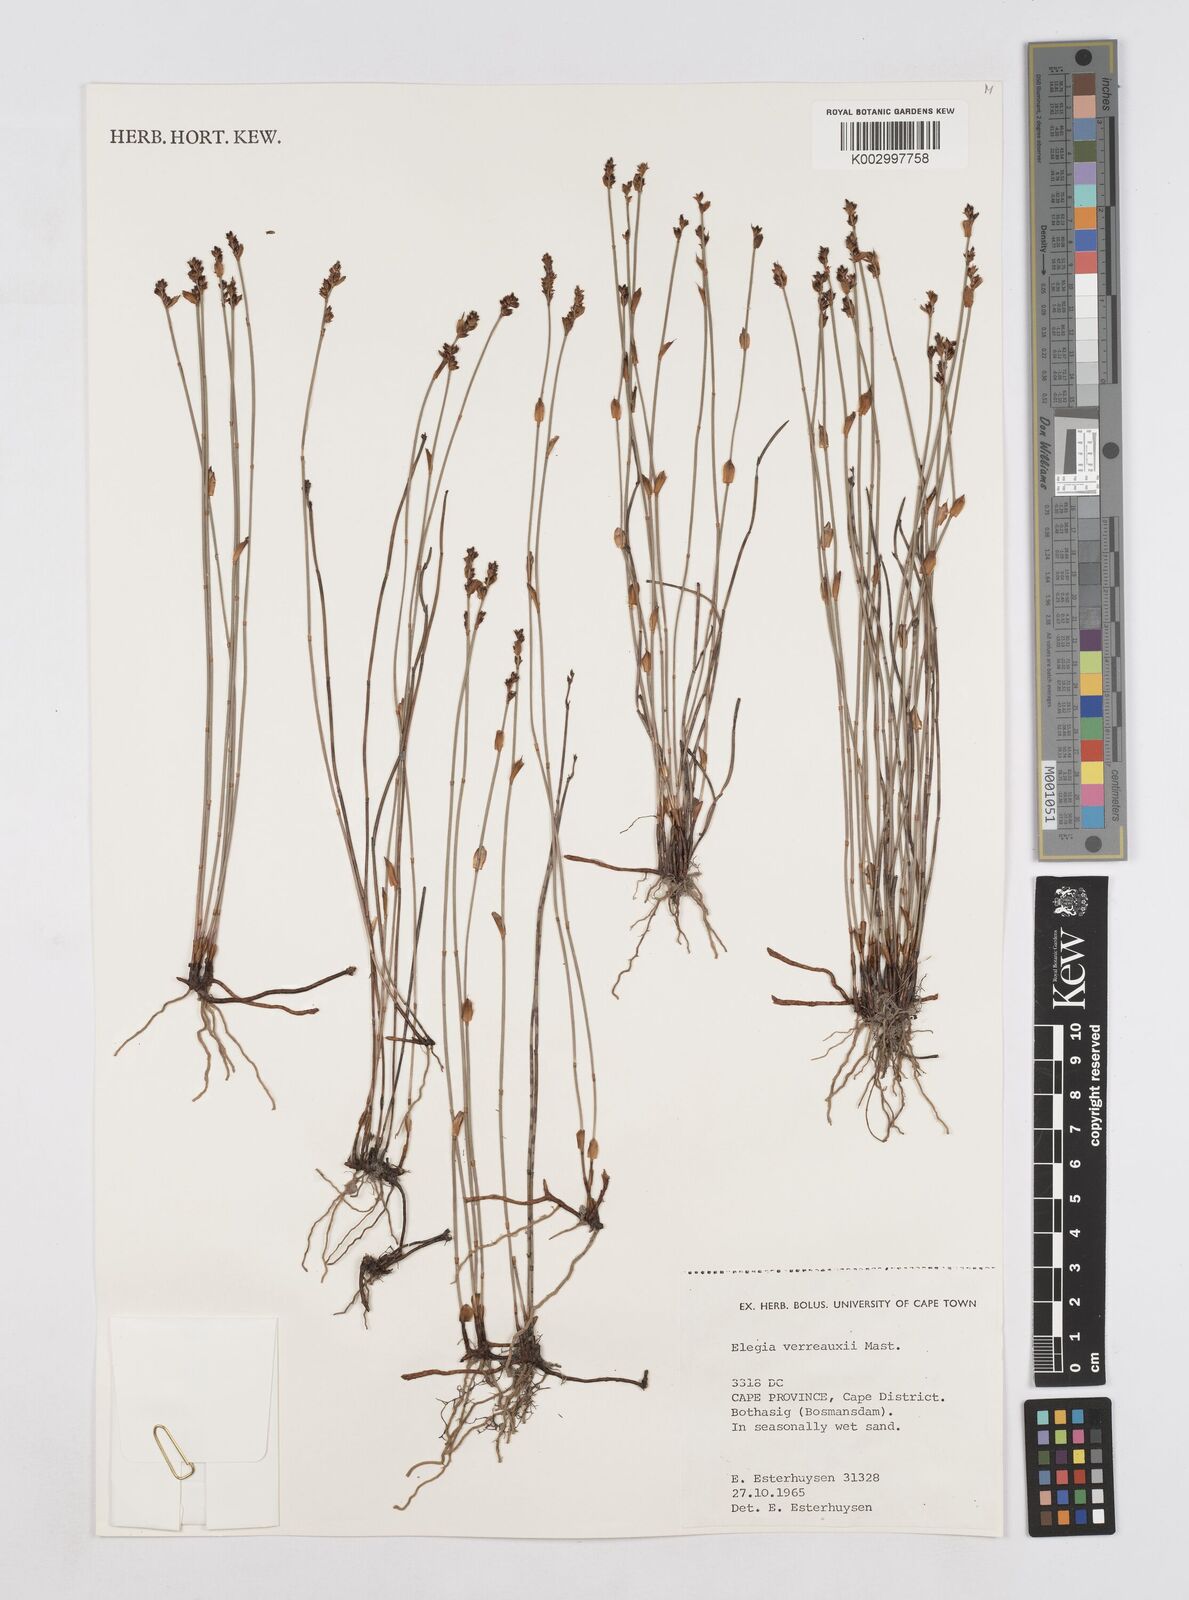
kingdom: Plantae
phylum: Tracheophyta
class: Liliopsida
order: Poales
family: Restionaceae
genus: Elegia
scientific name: Elegia juncea
